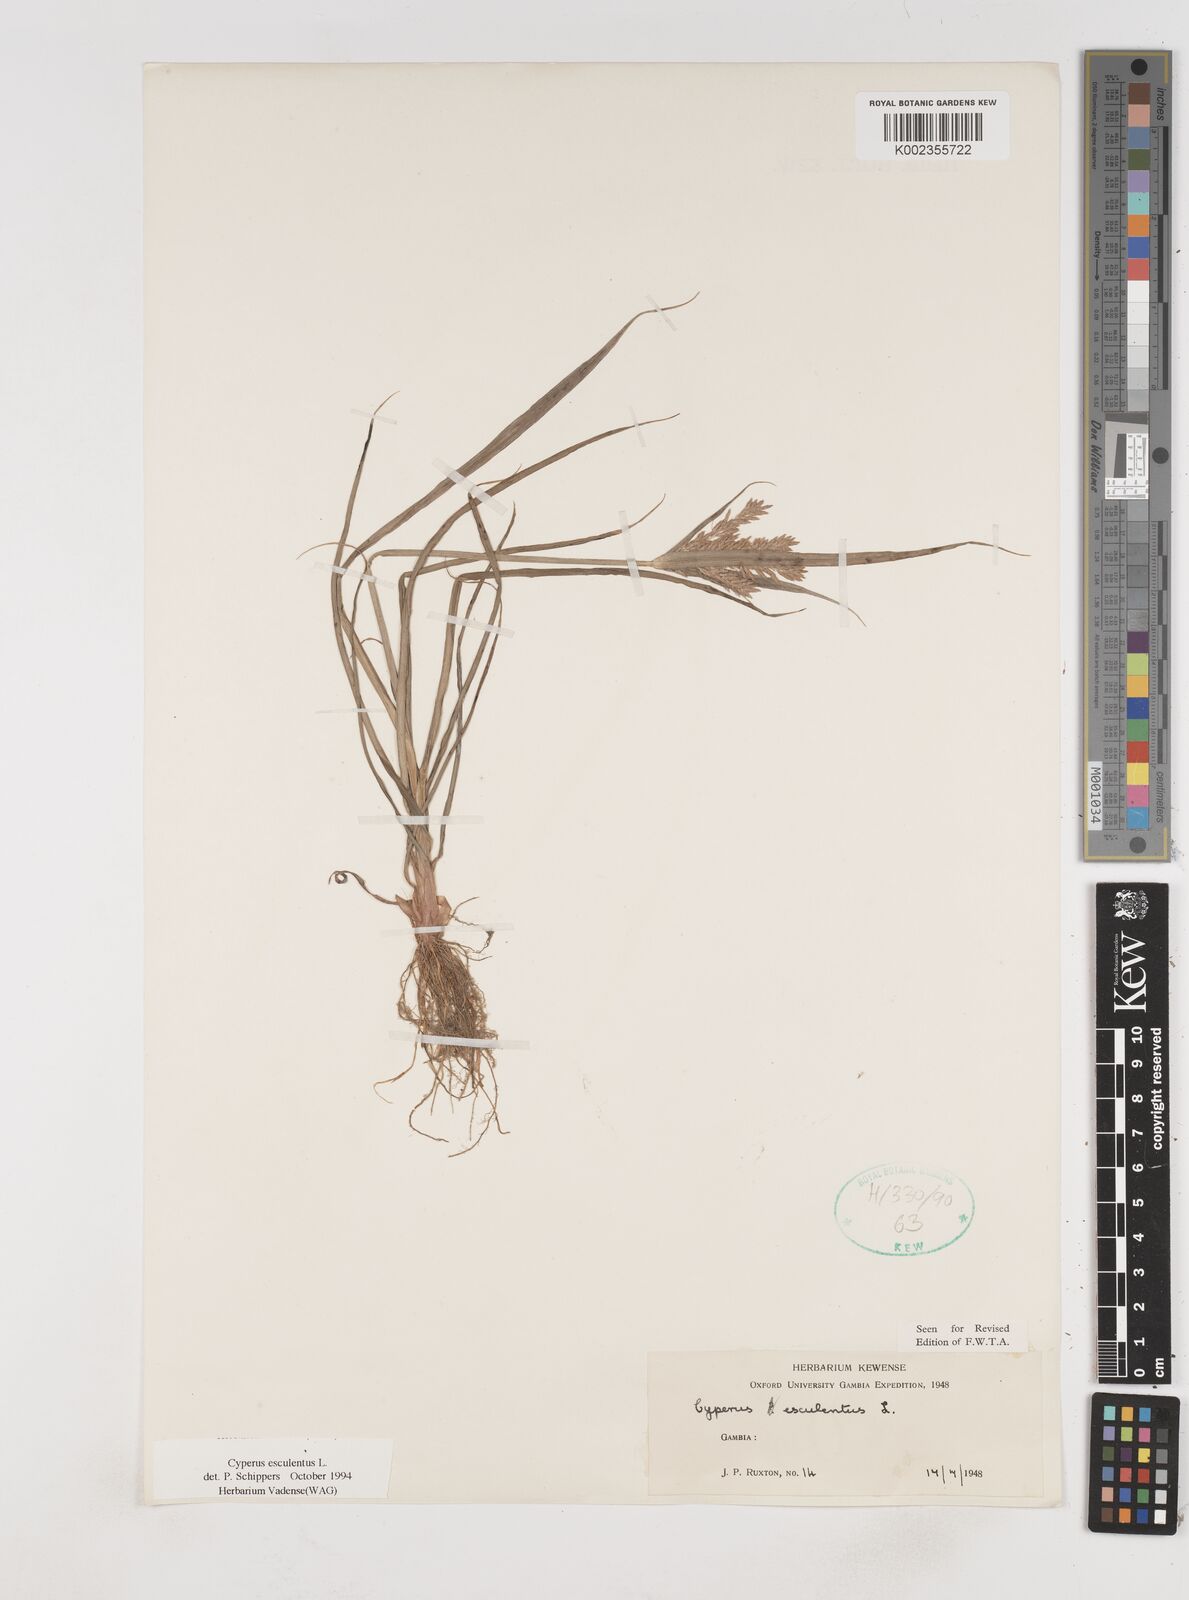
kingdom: Plantae
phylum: Tracheophyta
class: Liliopsida
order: Poales
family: Cyperaceae
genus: Cyperus
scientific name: Cyperus esculentus
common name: Yellow nutsedge
